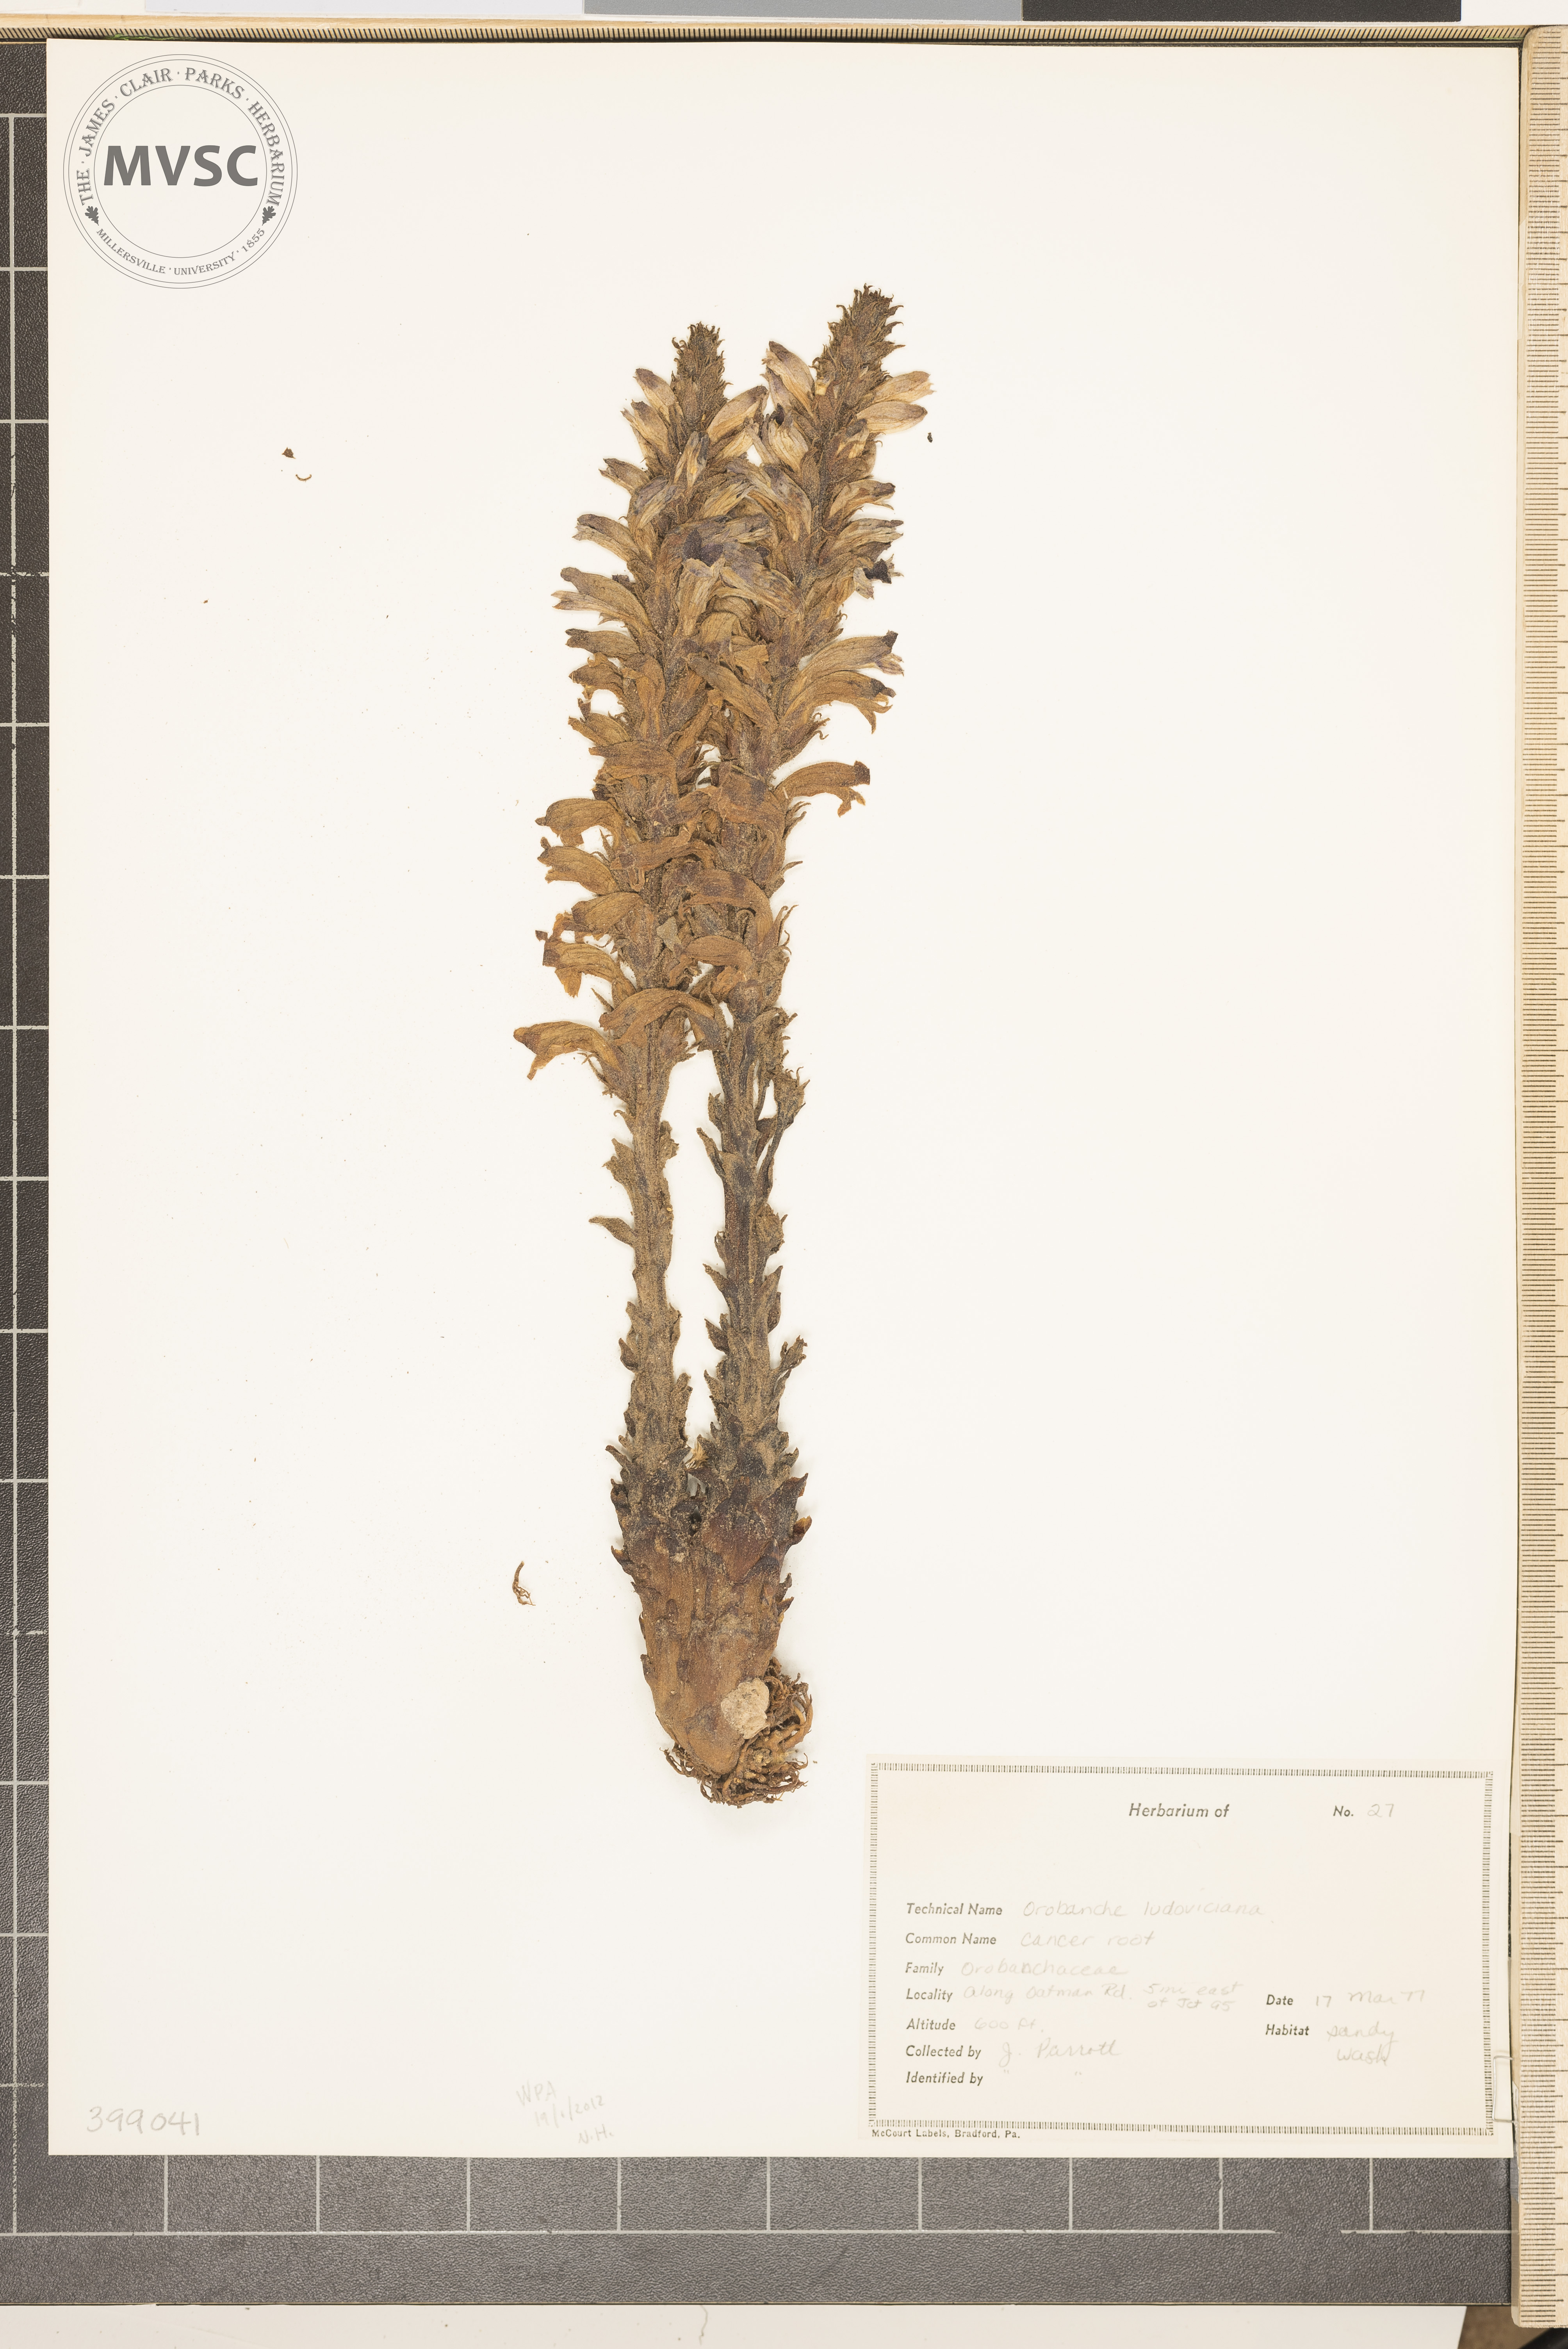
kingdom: Plantae
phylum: Tracheophyta
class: Magnoliopsida
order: Lamiales
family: Orobanchaceae
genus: Aphyllon
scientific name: Aphyllon ludovicianum
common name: broomrape
